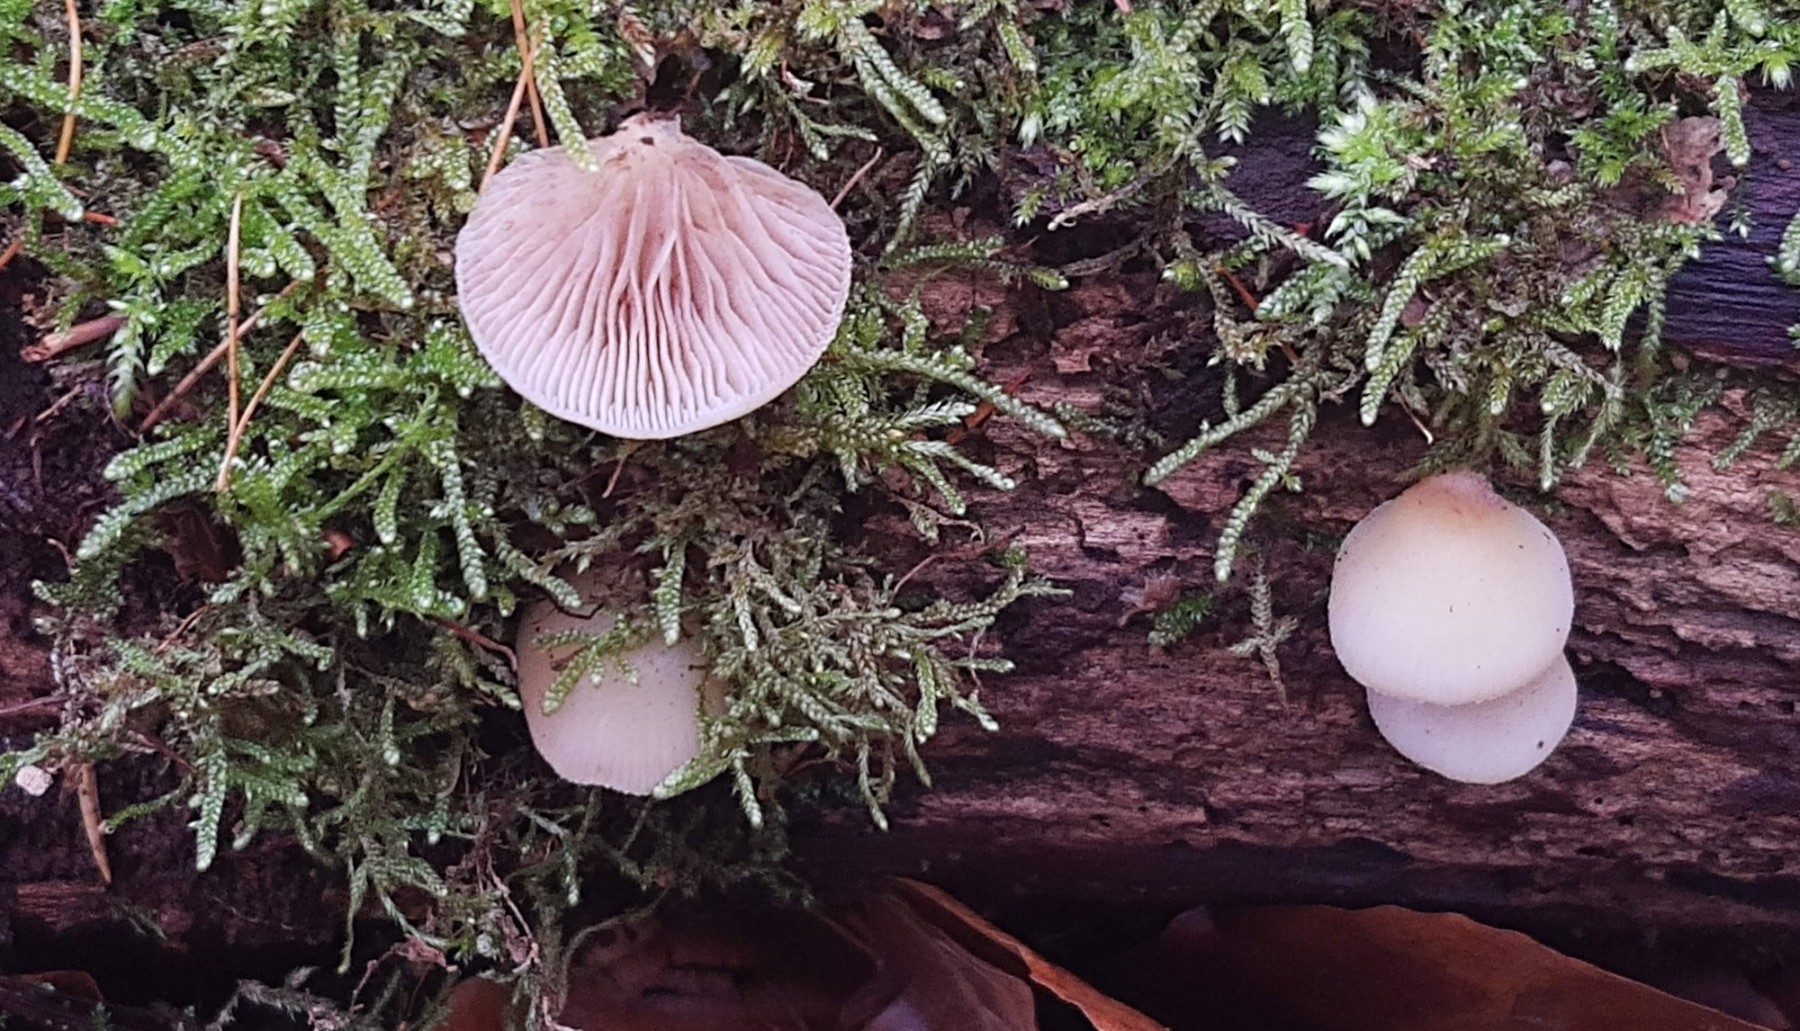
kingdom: Fungi
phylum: Basidiomycota
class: Agaricomycetes
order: Agaricales
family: Crepidotaceae
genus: Crepidotus
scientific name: Crepidotus mollis
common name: blød muslingesvamp
